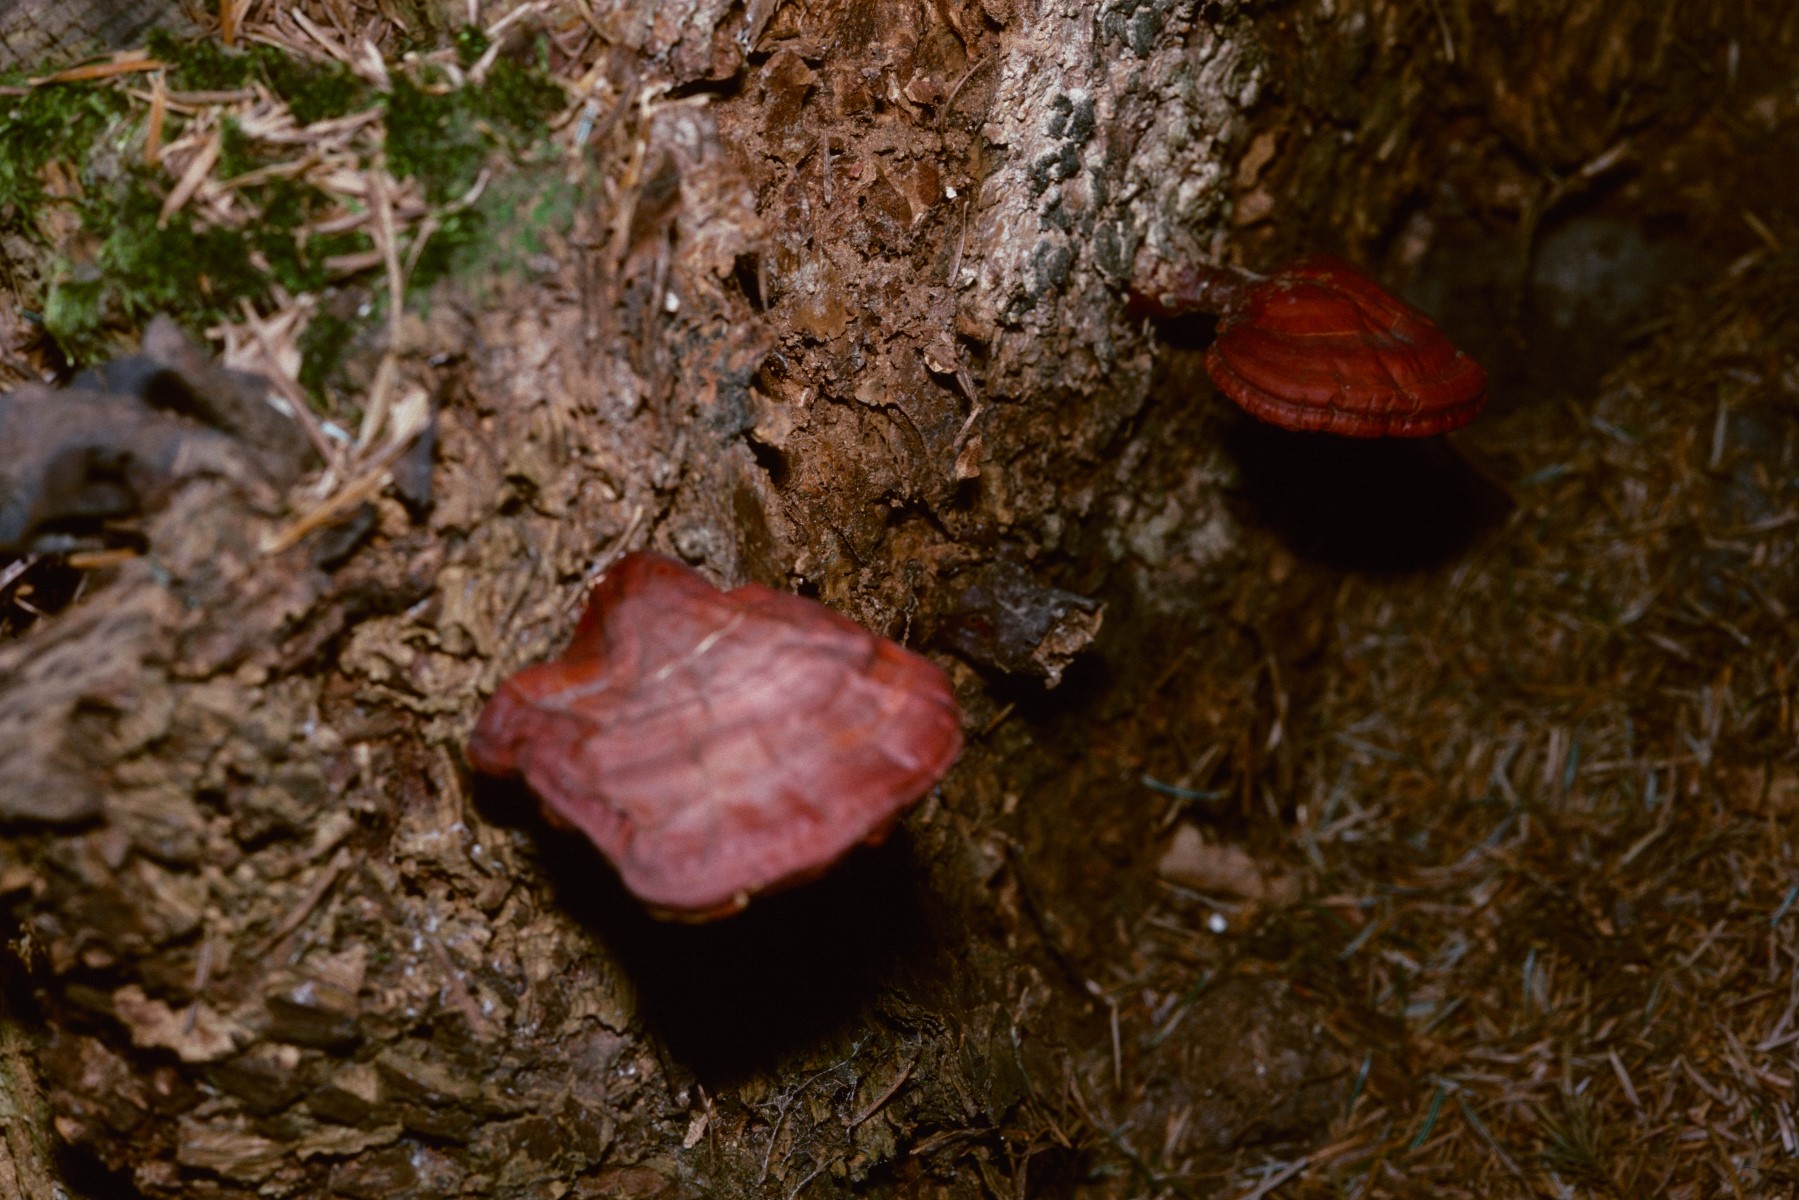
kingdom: Fungi
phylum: Basidiomycota
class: Agaricomycetes
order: Polyporales
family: Polyporaceae
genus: Ganoderma
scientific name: Ganoderma lucidum
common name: skinnende lakporesvamp
